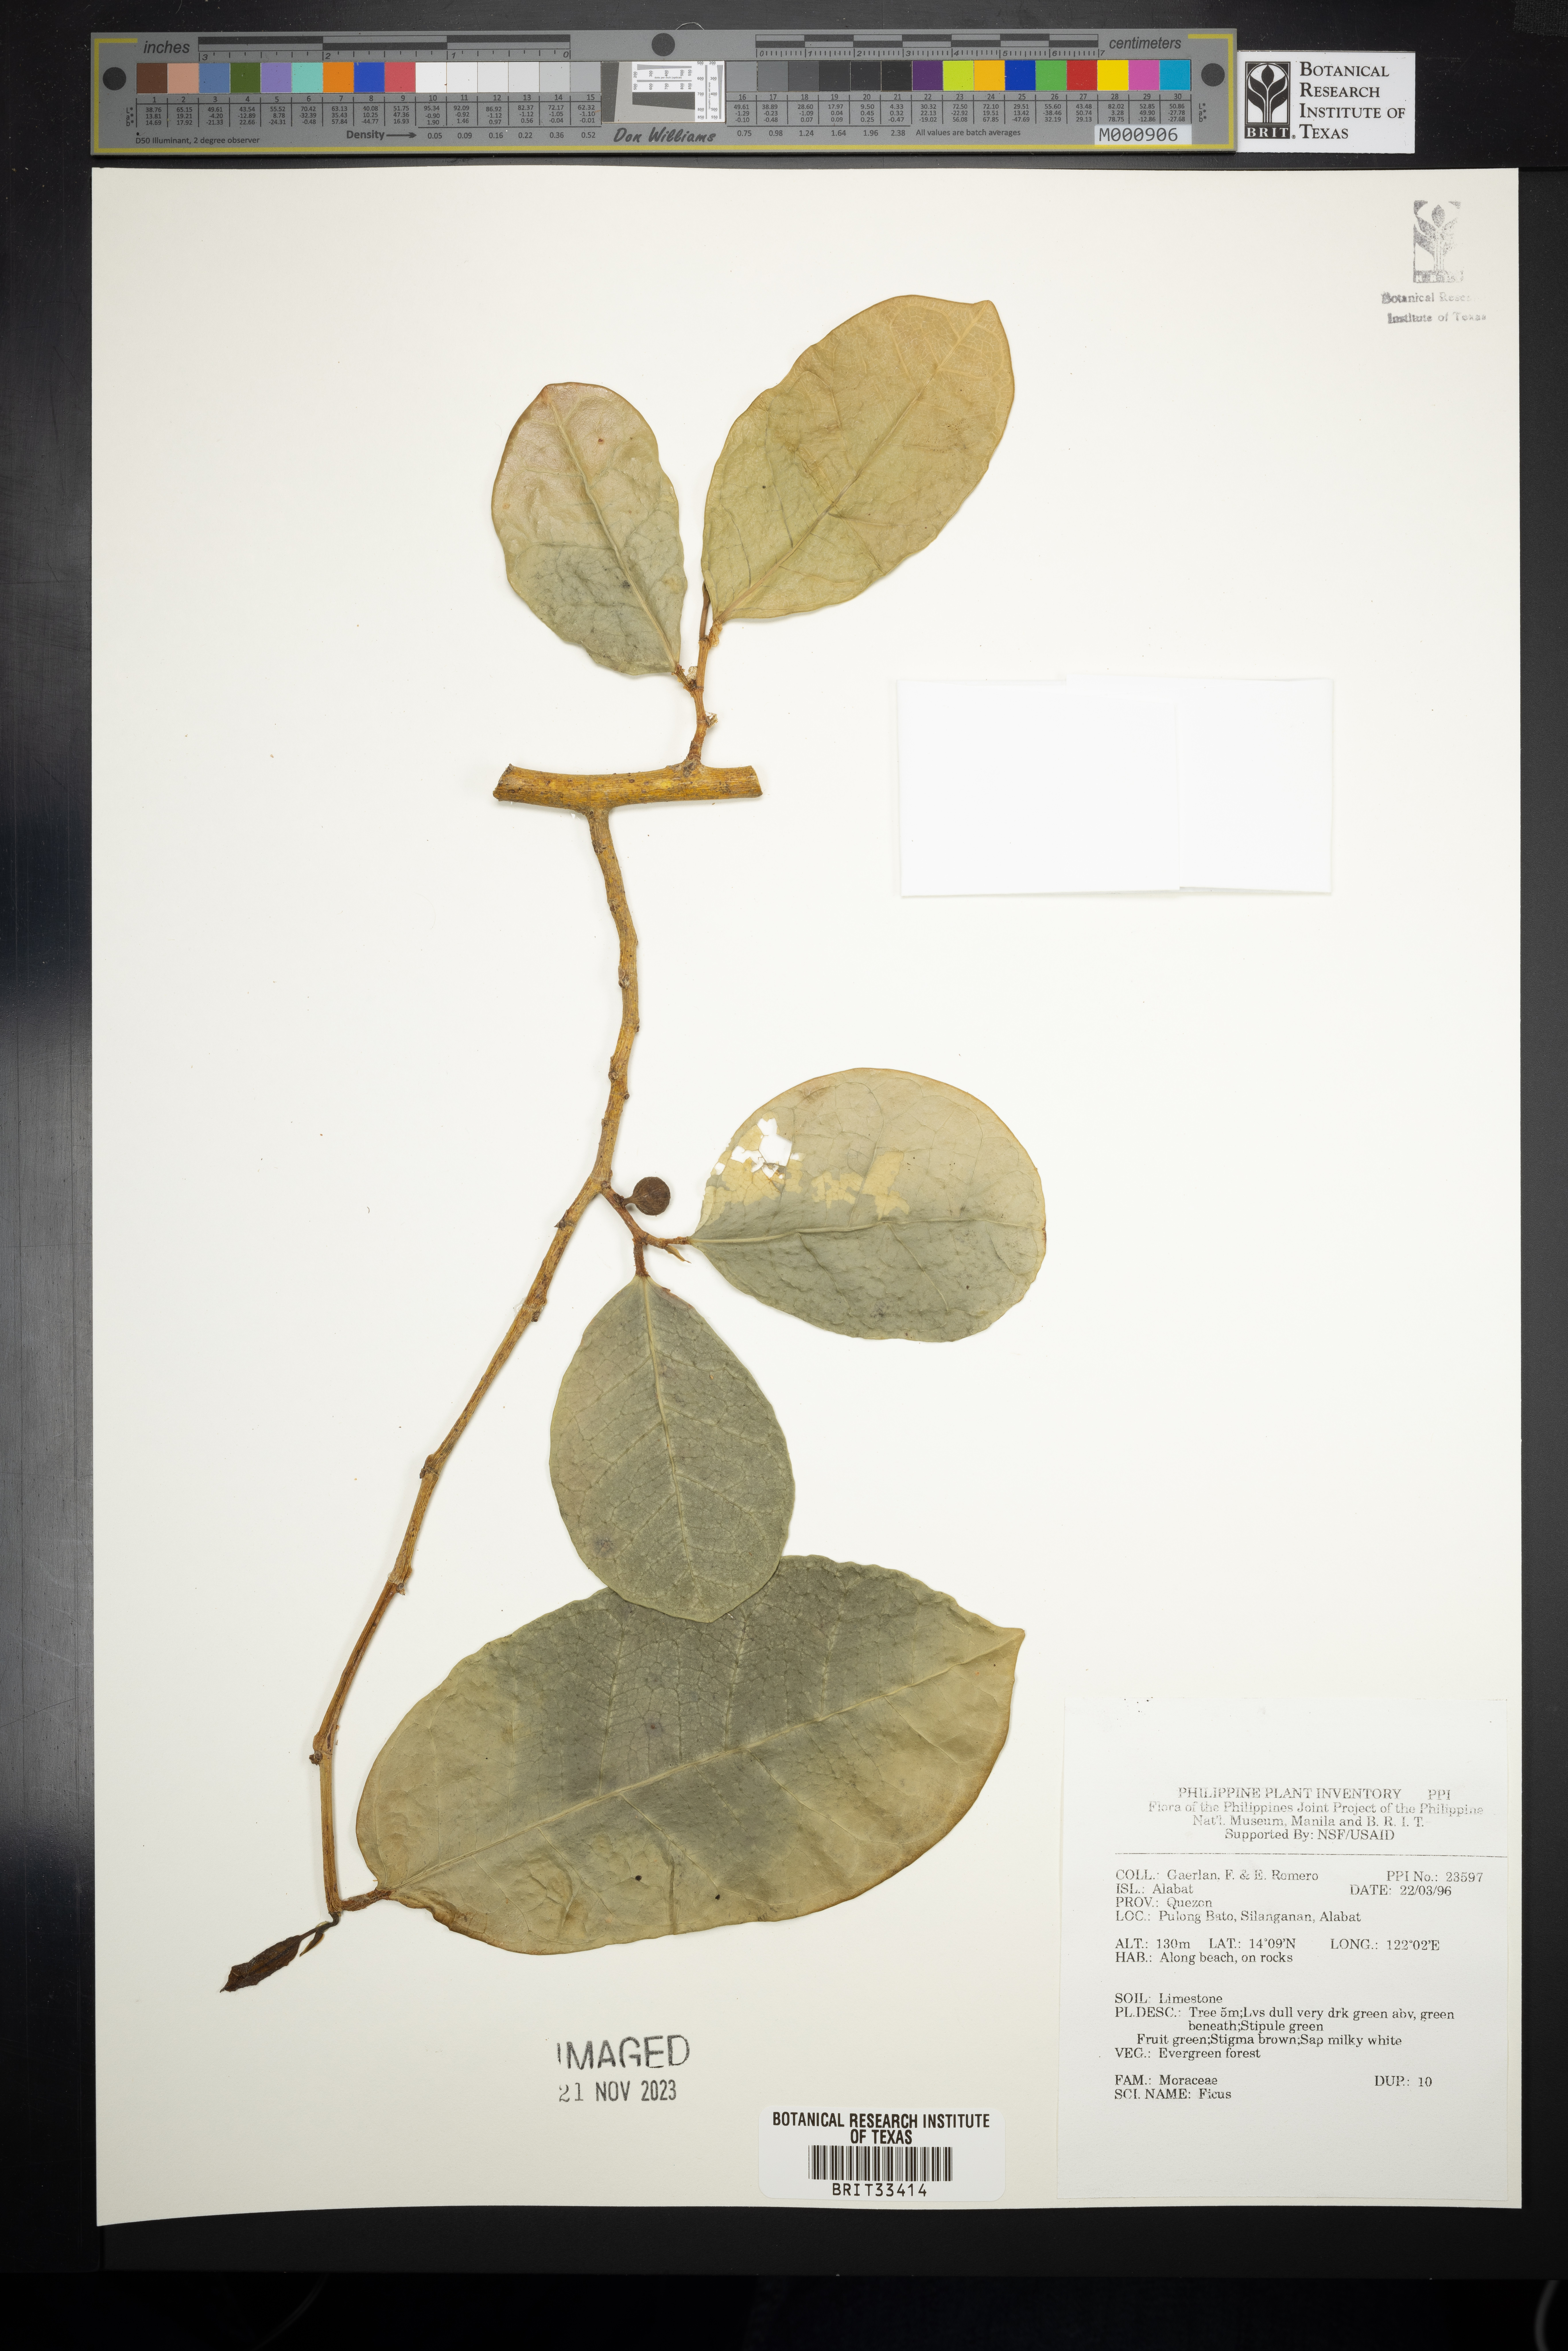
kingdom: Plantae
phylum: Tracheophyta
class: Magnoliopsida
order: Rosales
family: Moraceae
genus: Ficus
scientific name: Ficus
